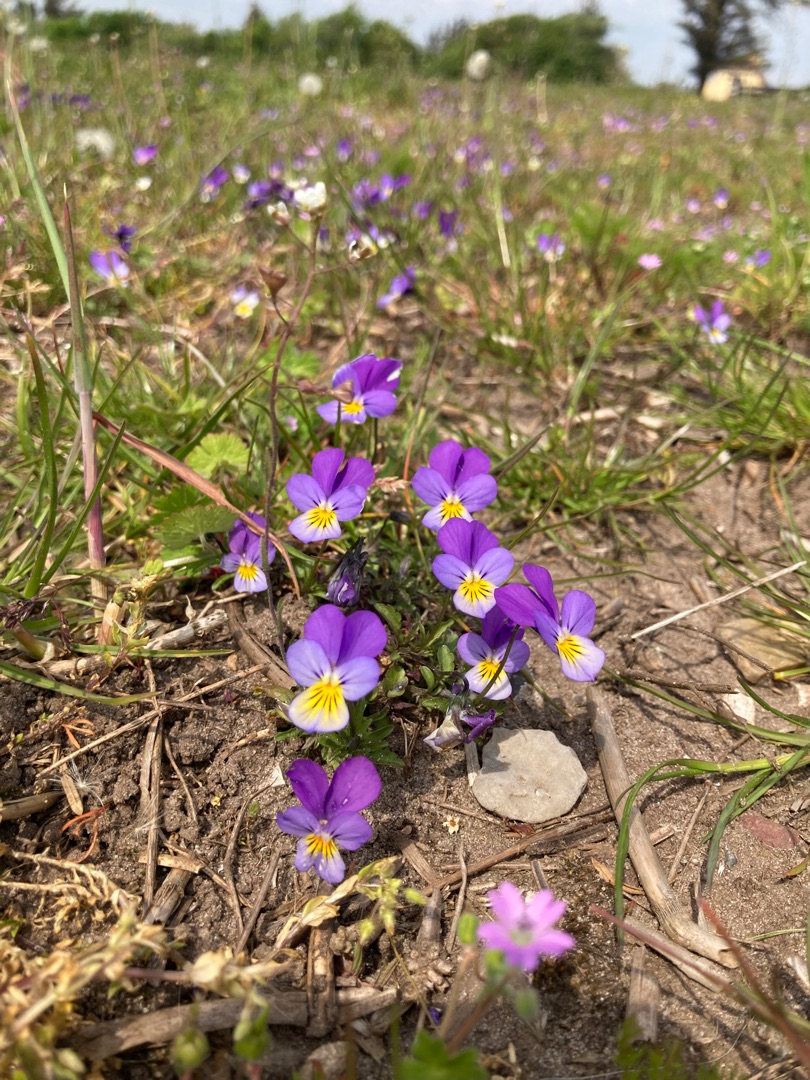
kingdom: Plantae
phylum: Tracheophyta
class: Magnoliopsida
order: Malpighiales
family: Violaceae
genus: Viola
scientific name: Viola tricolor
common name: Stedmoderblomst
